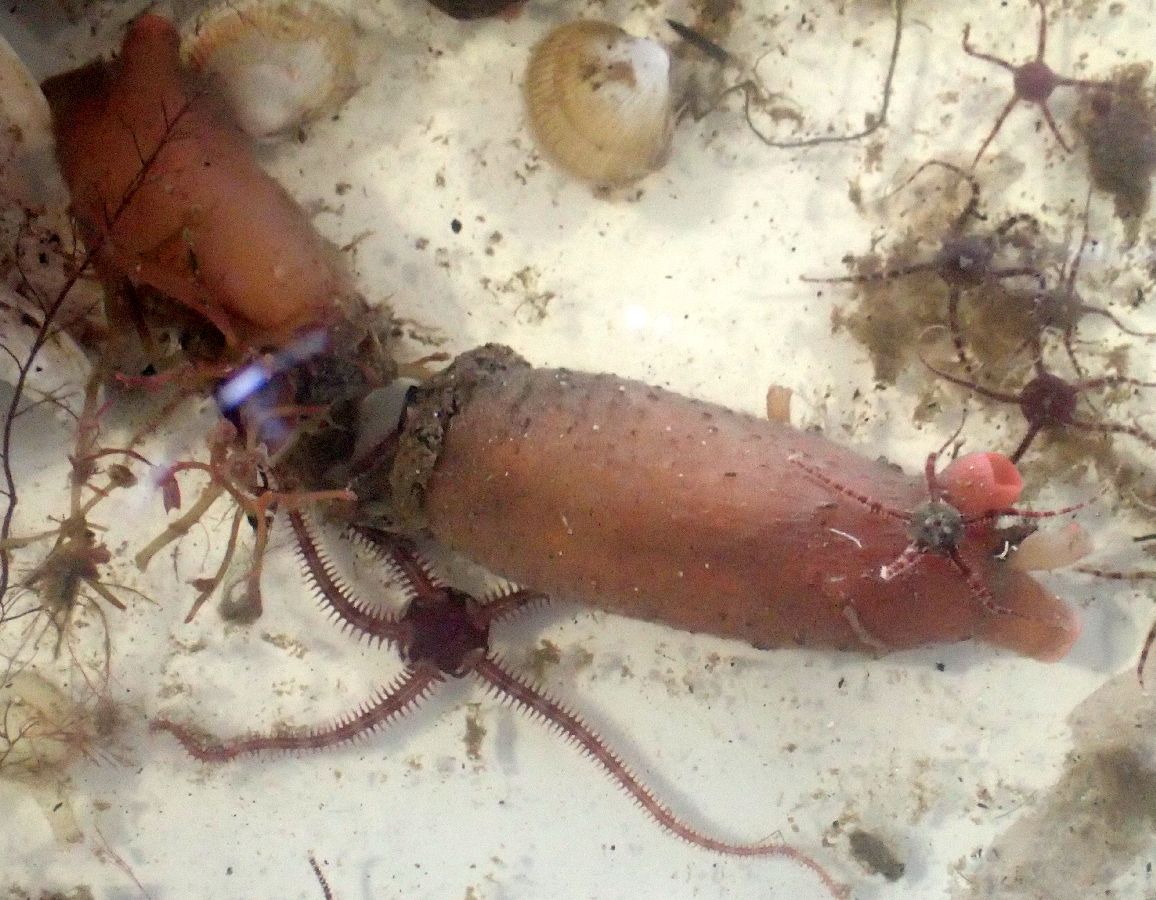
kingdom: Animalia
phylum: Chordata
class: Ascidiacea
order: Stolidobranchia
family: Styelidae
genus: Styela
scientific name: Styela rustica
